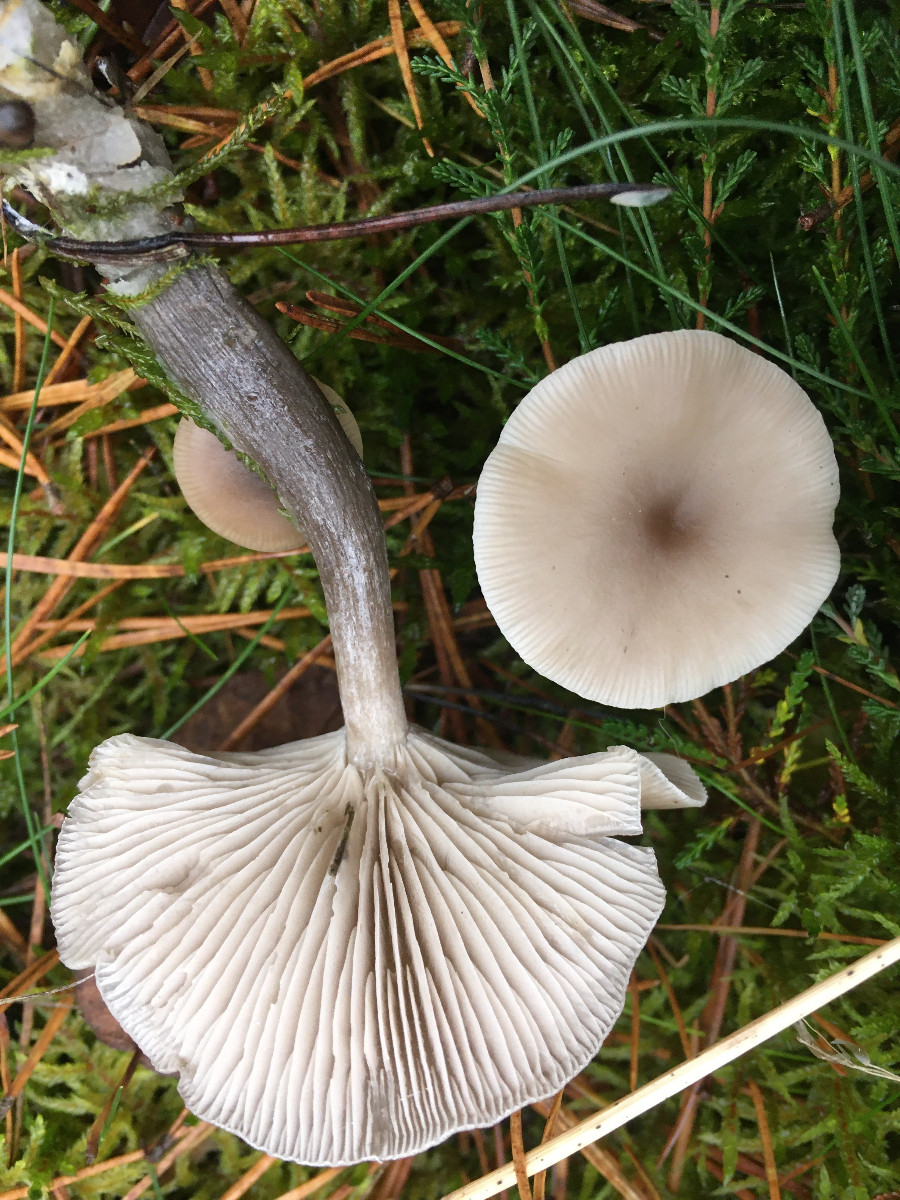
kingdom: Fungi
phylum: Basidiomycota
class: Agaricomycetes
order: Agaricales
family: Tricholomataceae
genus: Clitocybe
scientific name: Clitocybe
